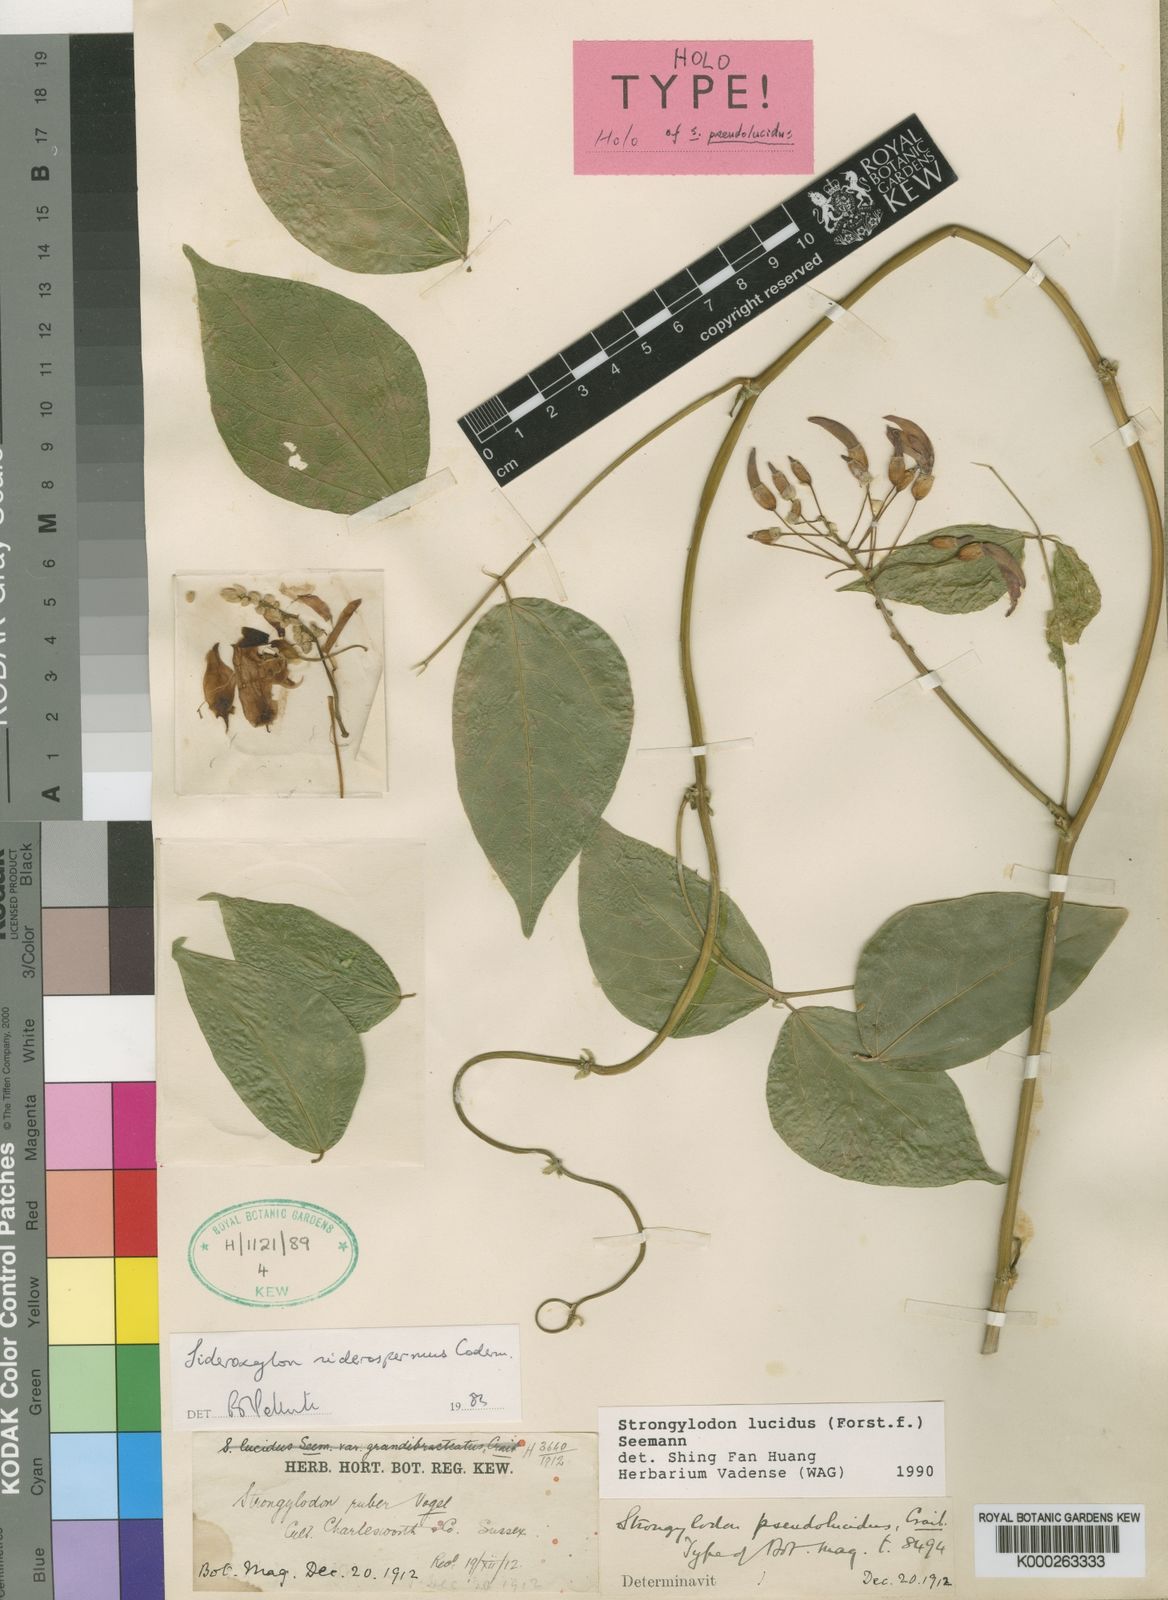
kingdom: Plantae
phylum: Tracheophyta
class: Magnoliopsida
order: Fabales
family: Fabaceae
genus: Strongylodon
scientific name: Strongylodon lucidus
